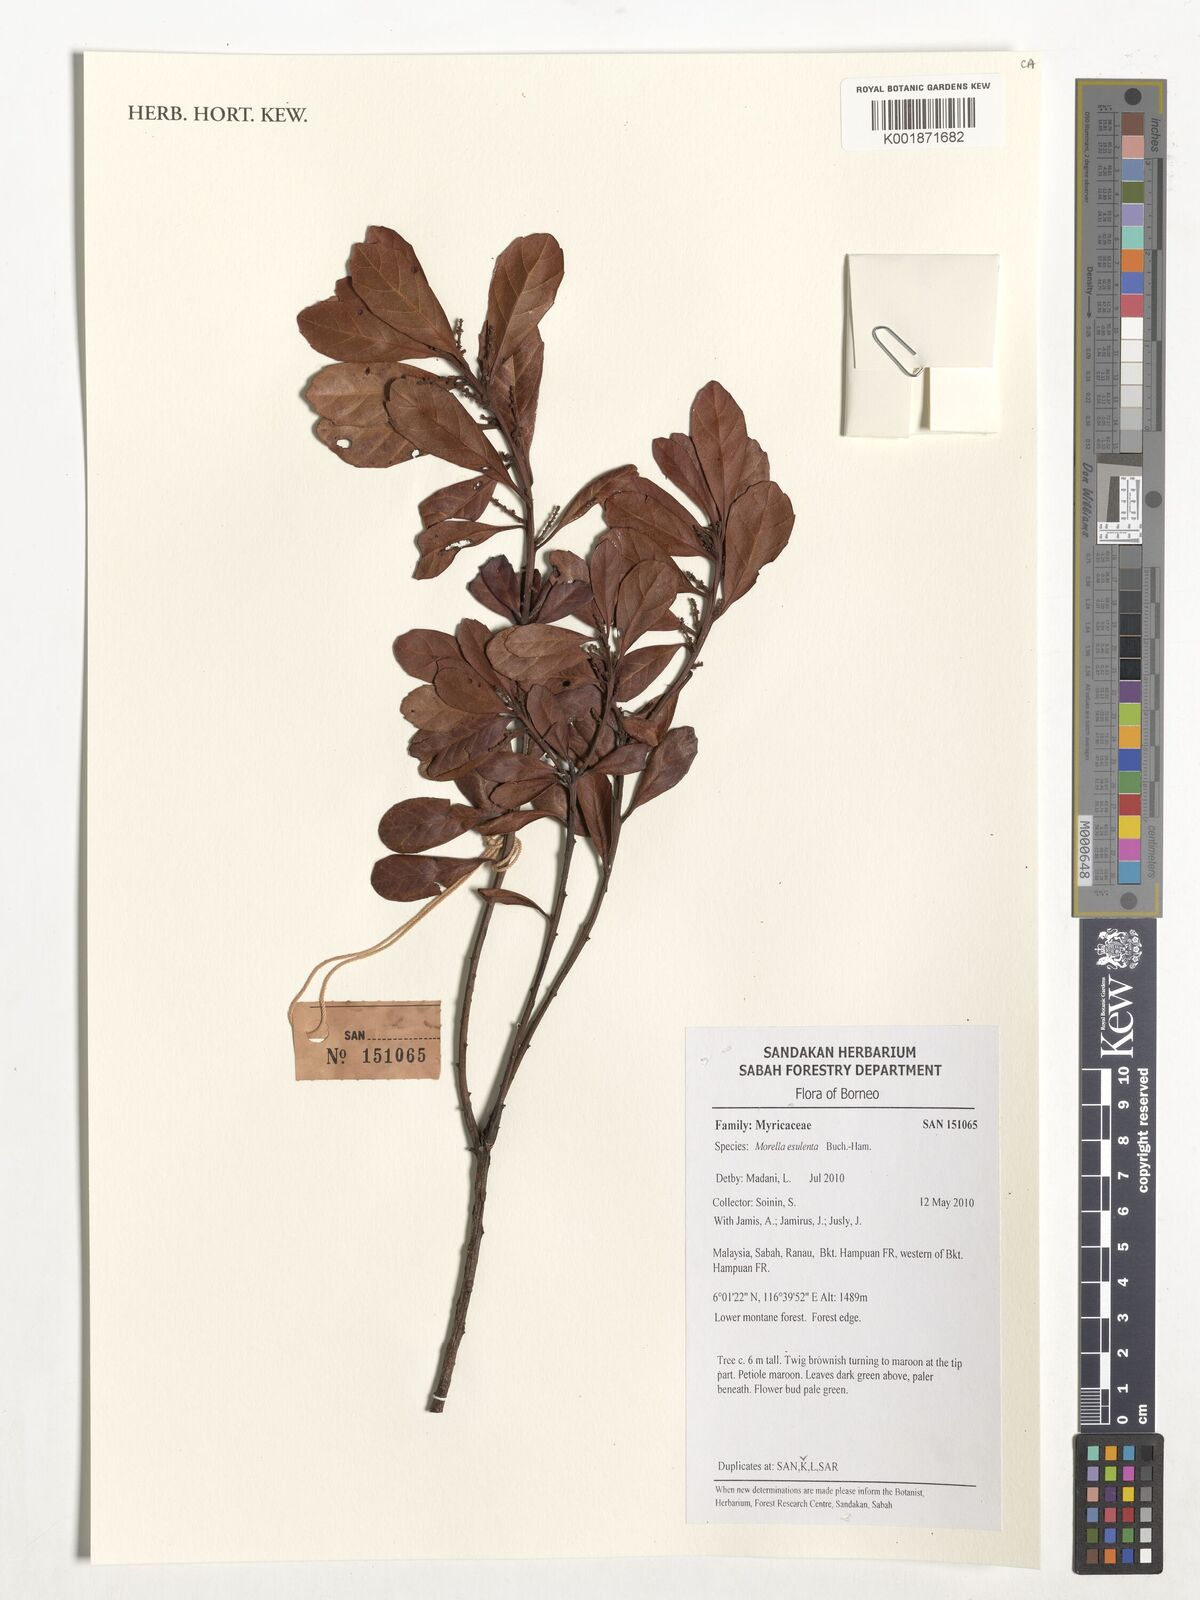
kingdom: Plantae
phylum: Tracheophyta
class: Magnoliopsida
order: Fagales
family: Myricaceae
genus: Morella
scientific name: Morella
